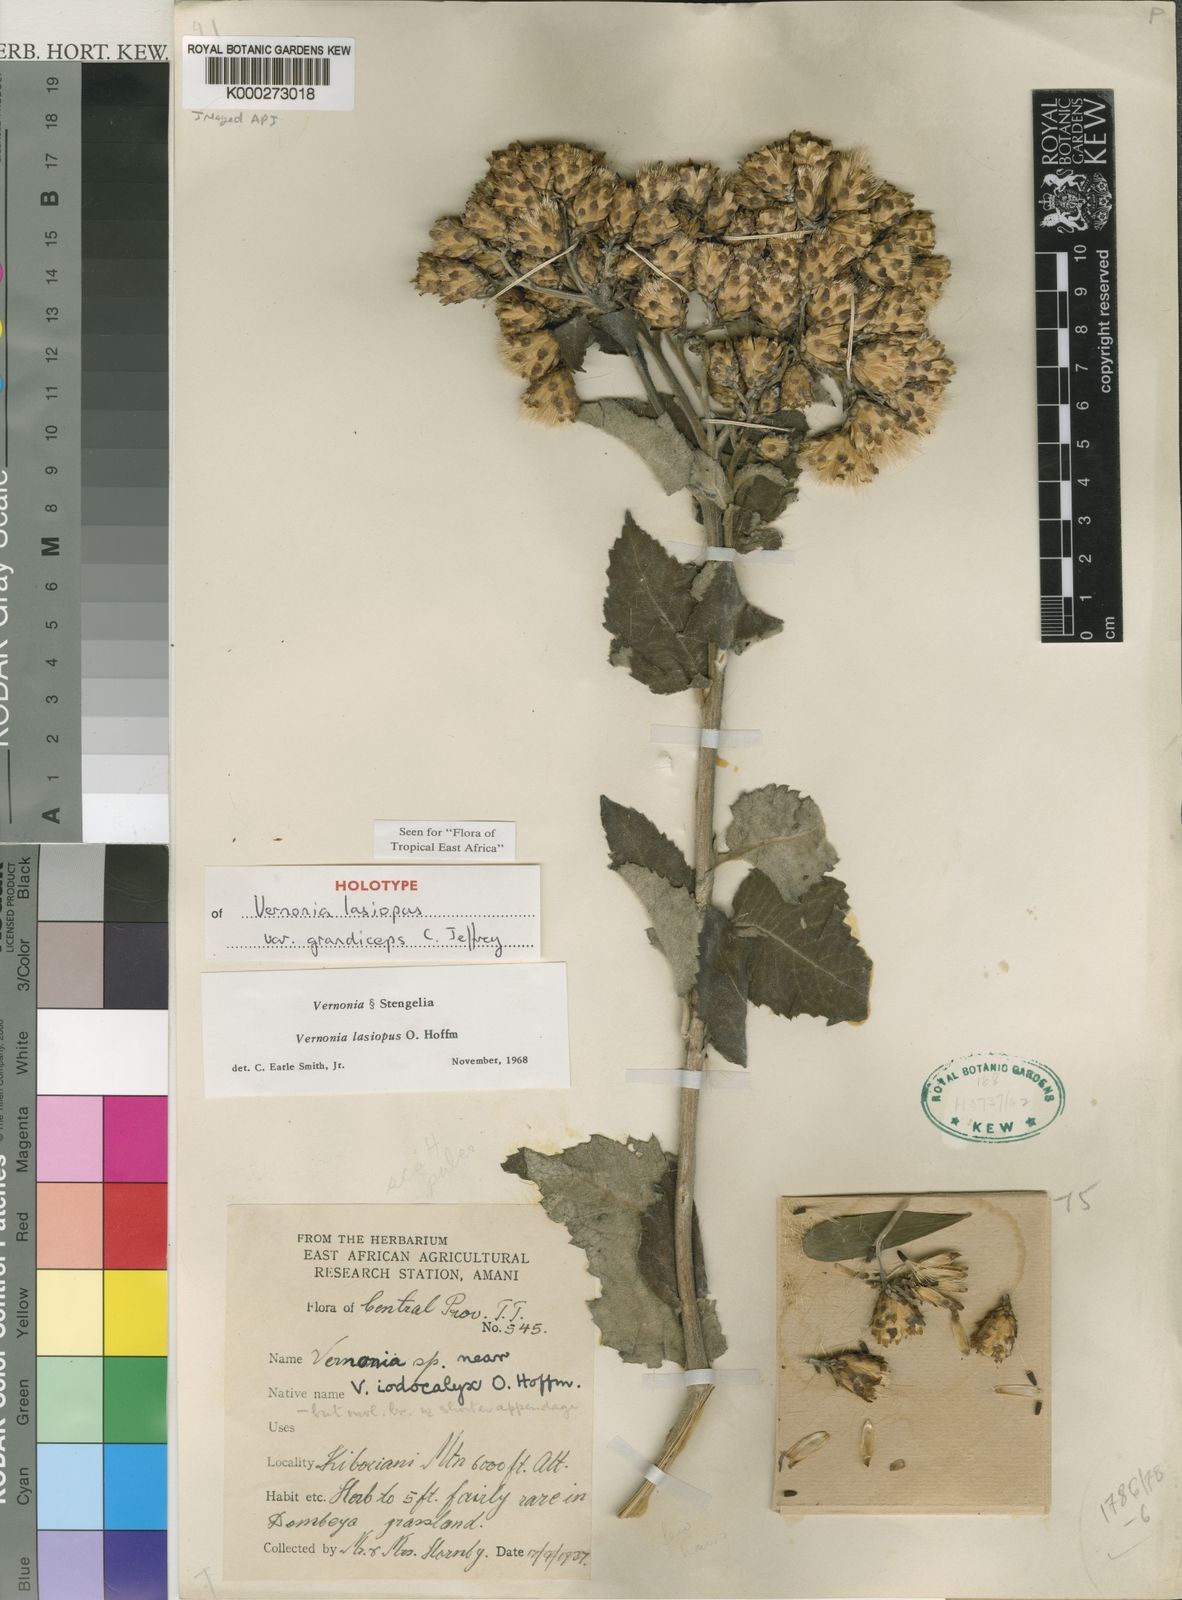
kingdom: Plantae
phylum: Tracheophyta
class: Magnoliopsida
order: Asterales
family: Asteraceae
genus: Baccharoides
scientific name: Baccharoides lasiopus
